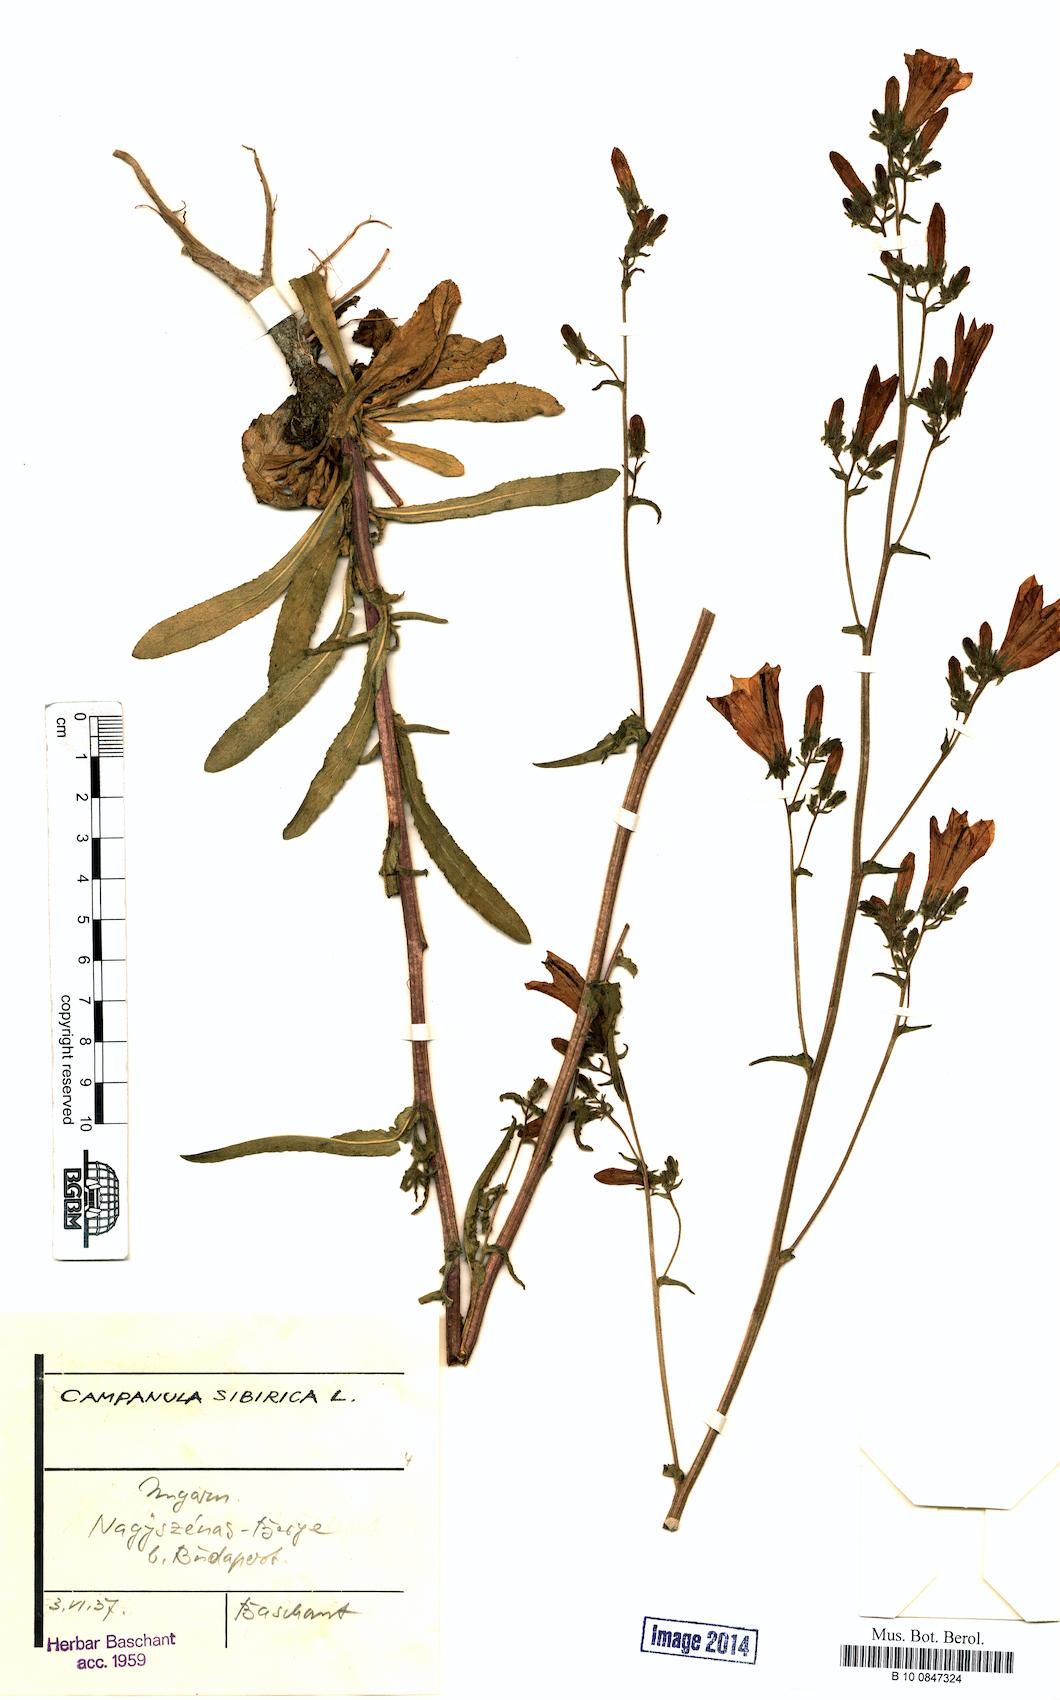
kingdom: Plantae
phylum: Tracheophyta
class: Magnoliopsida
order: Asterales
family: Campanulaceae
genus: Campanula
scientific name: Campanula sibirica
